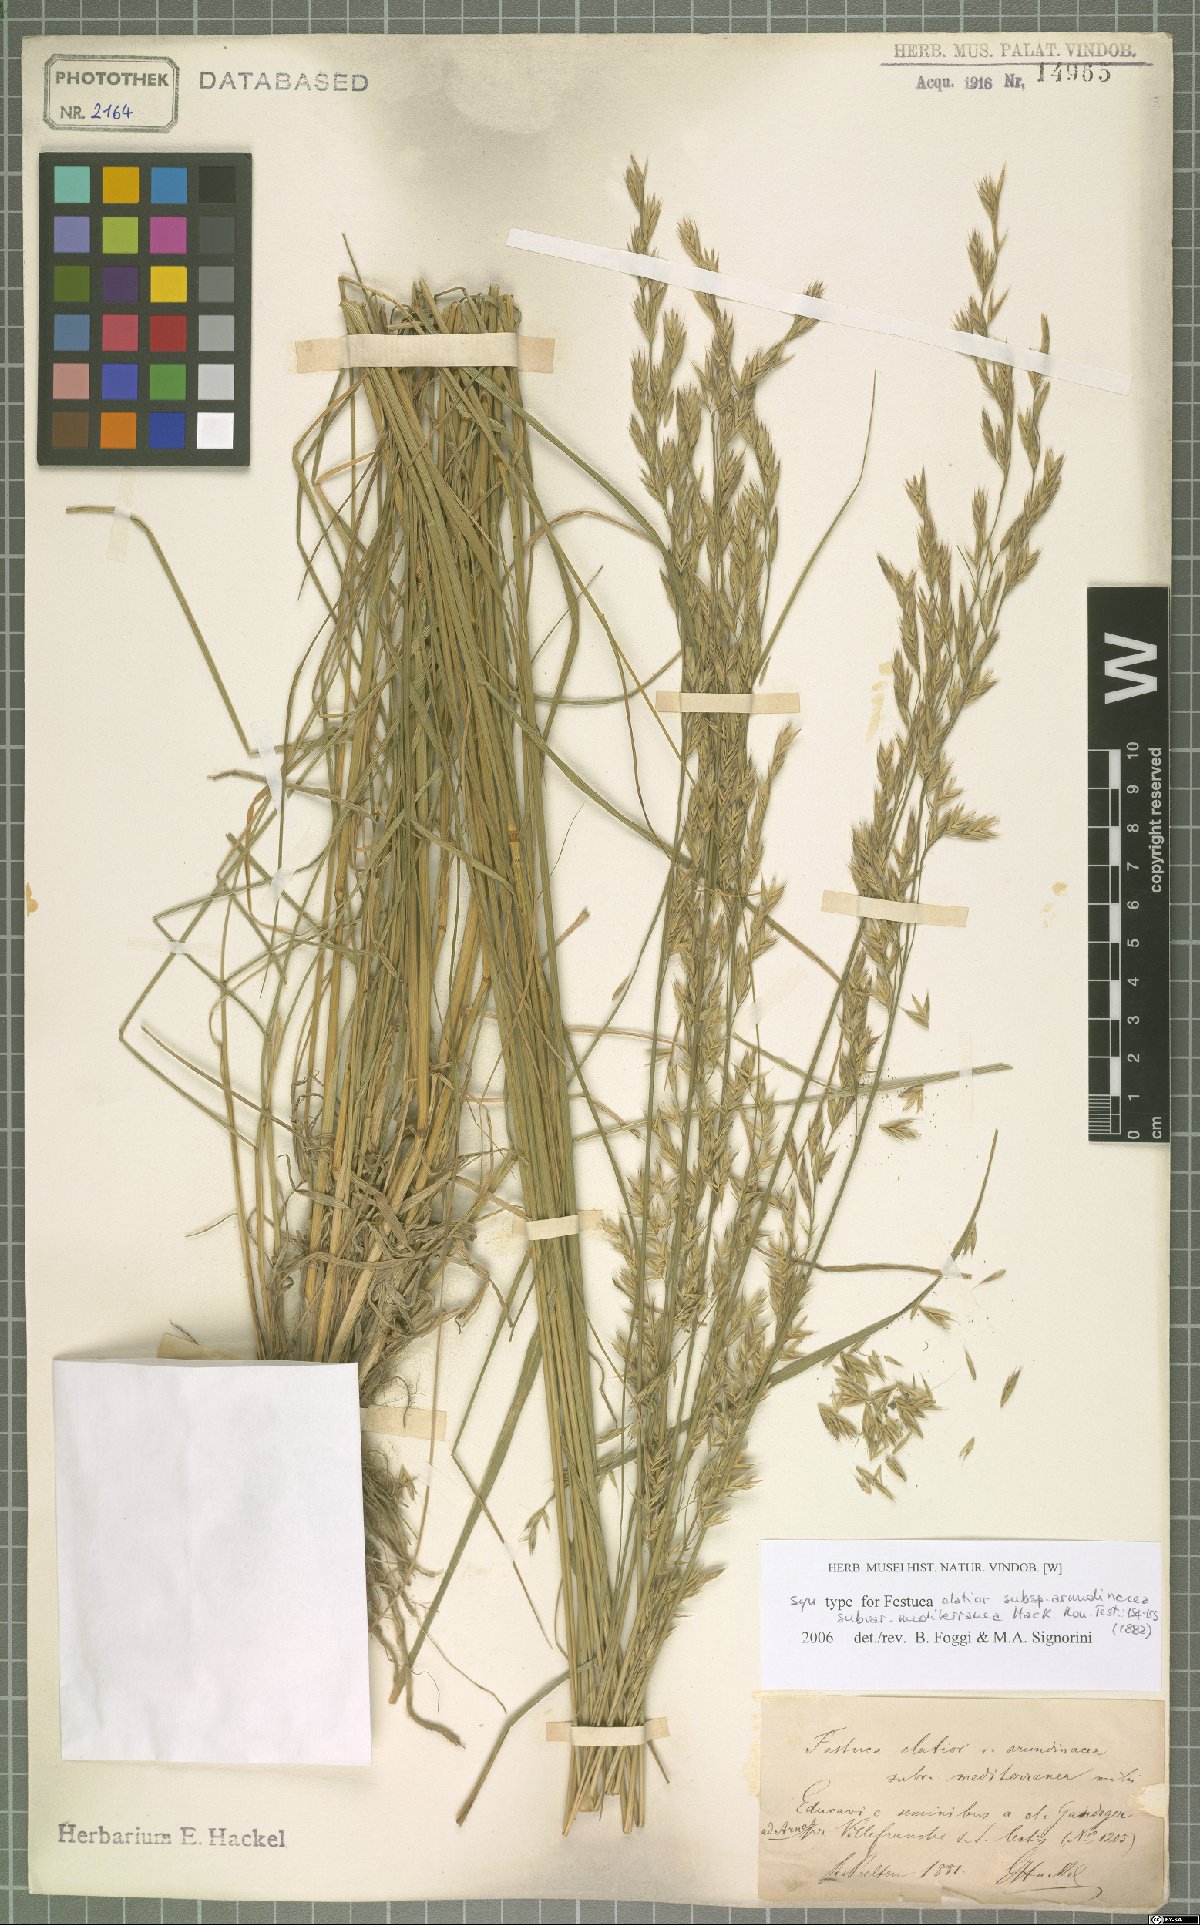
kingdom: Plantae
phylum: Tracheophyta
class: Liliopsida
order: Poales
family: Poaceae
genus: Lolium
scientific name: Lolium mediterraneum
